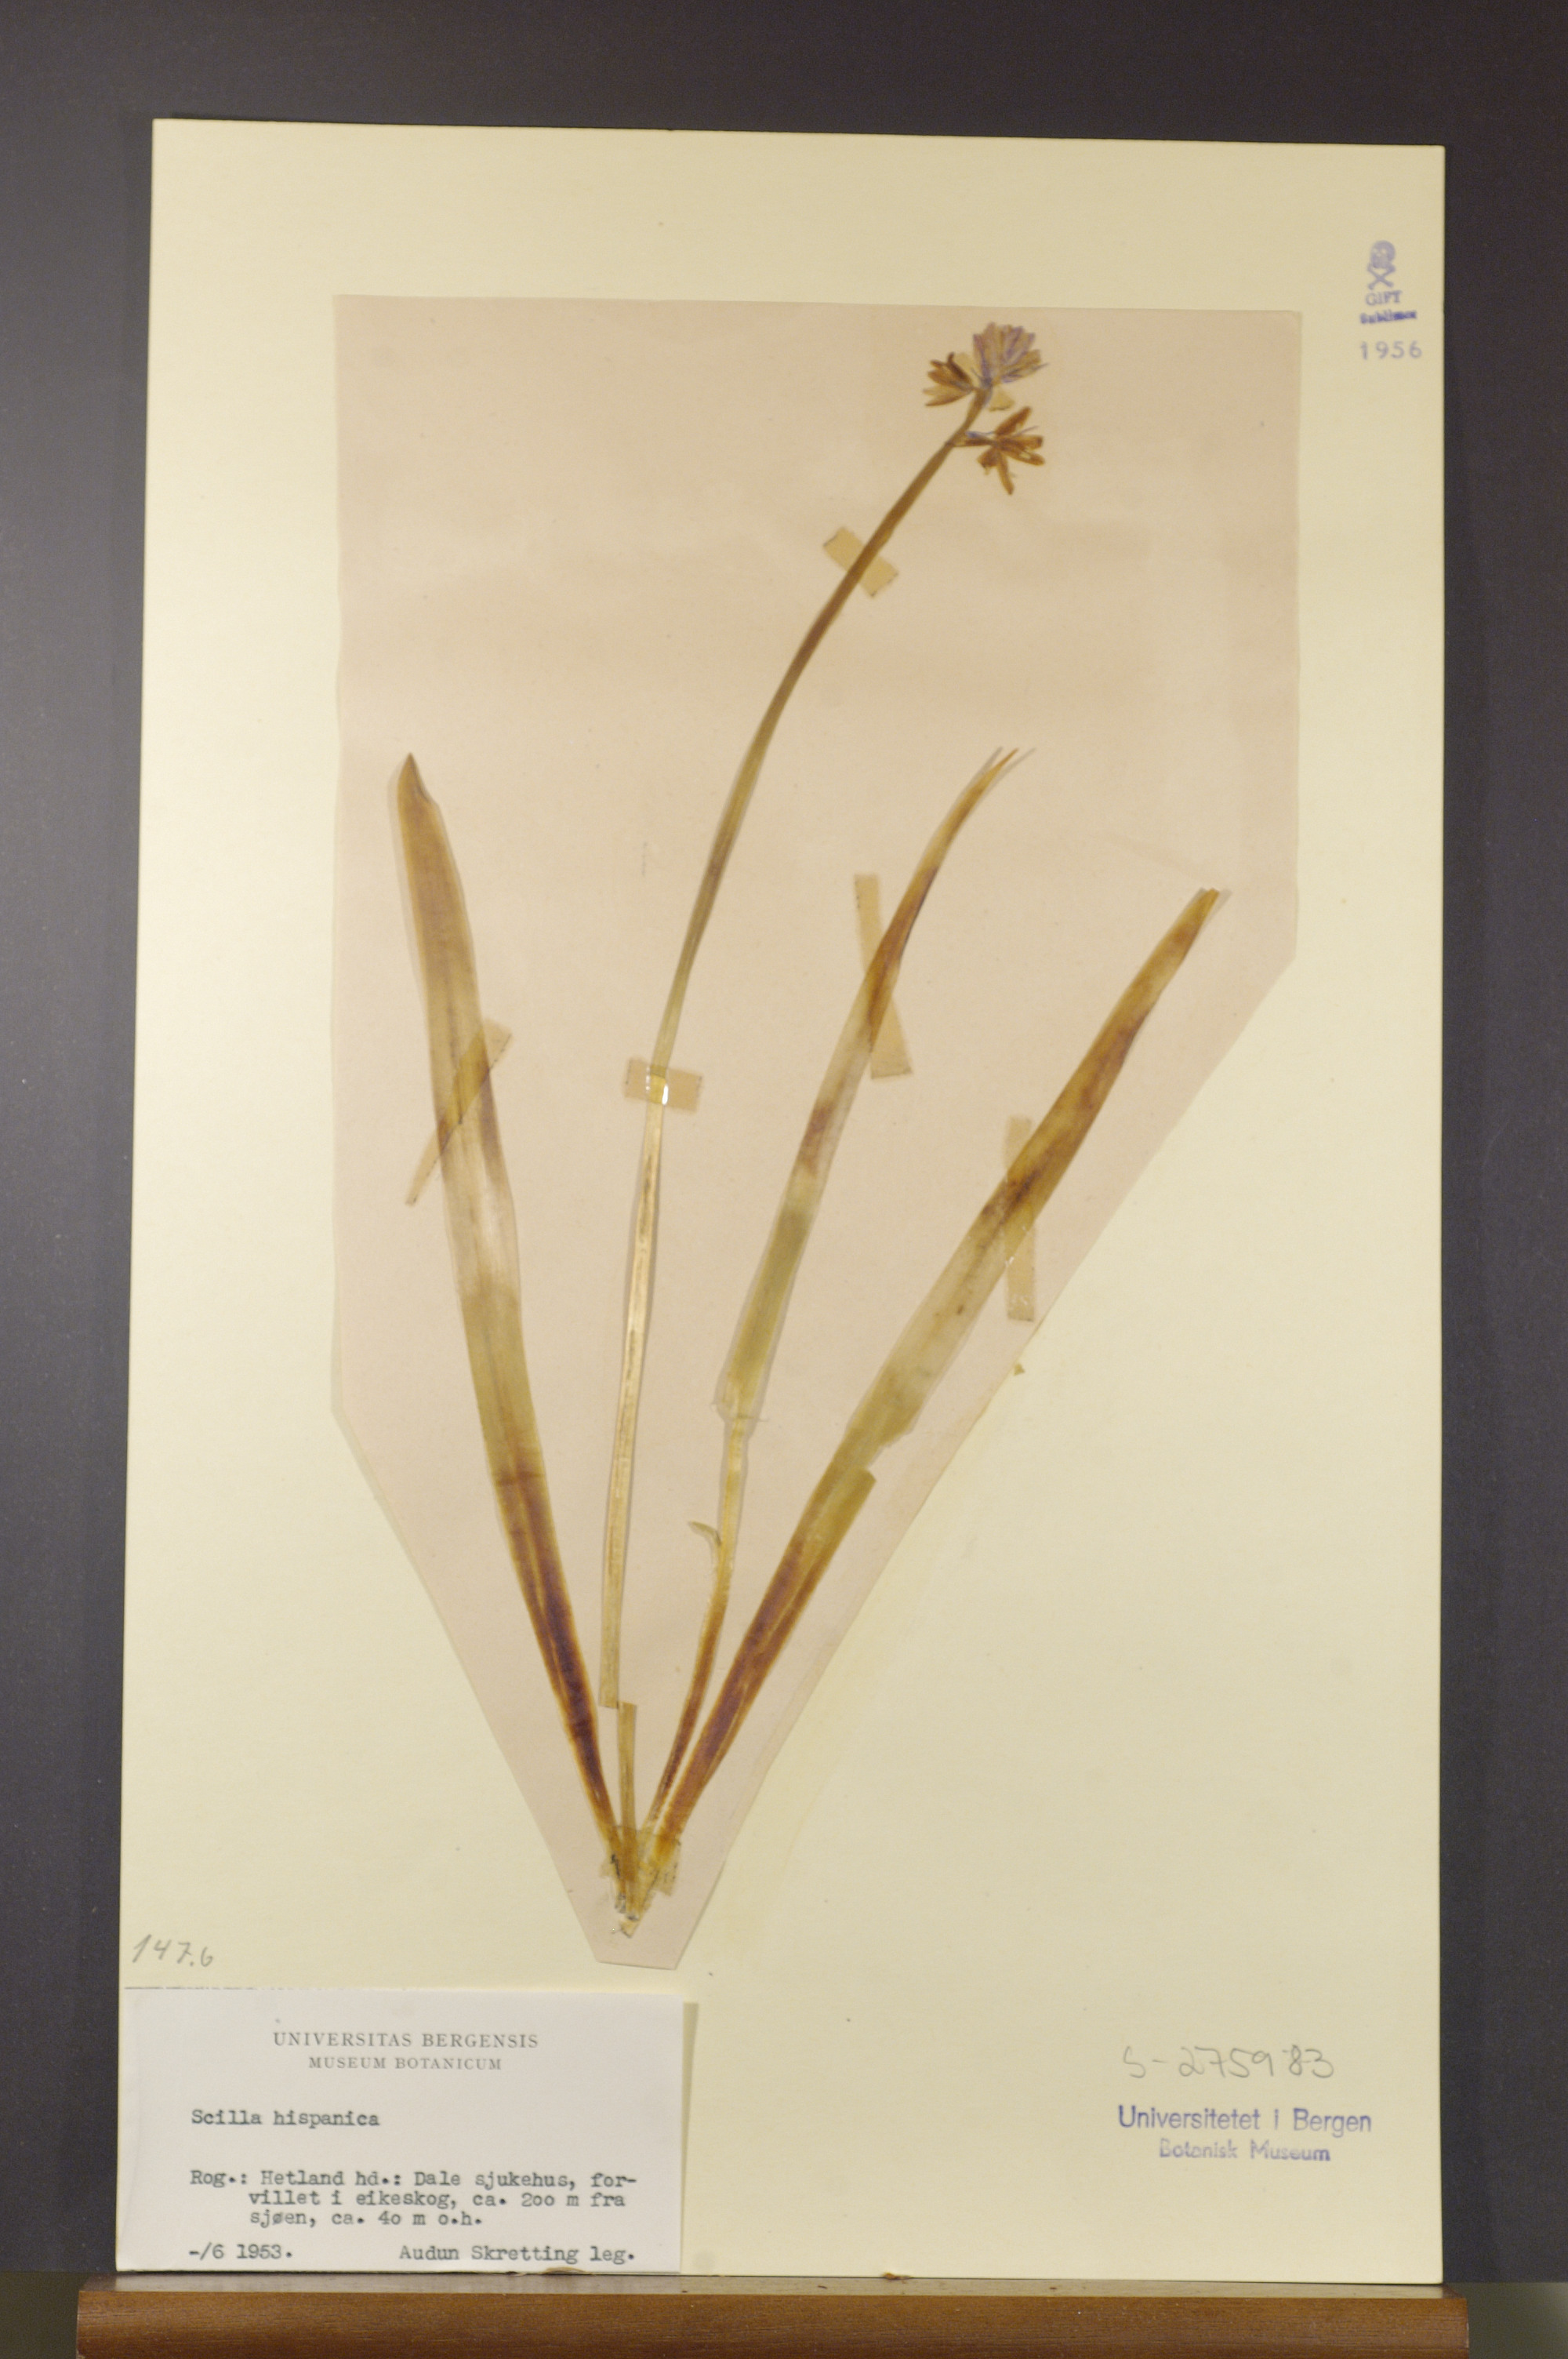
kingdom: Plantae
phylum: Tracheophyta
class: Liliopsida
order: Asparagales
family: Asparagaceae
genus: Hyacinthoides
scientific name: Hyacinthoides hispanica
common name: Spanish bluebell
